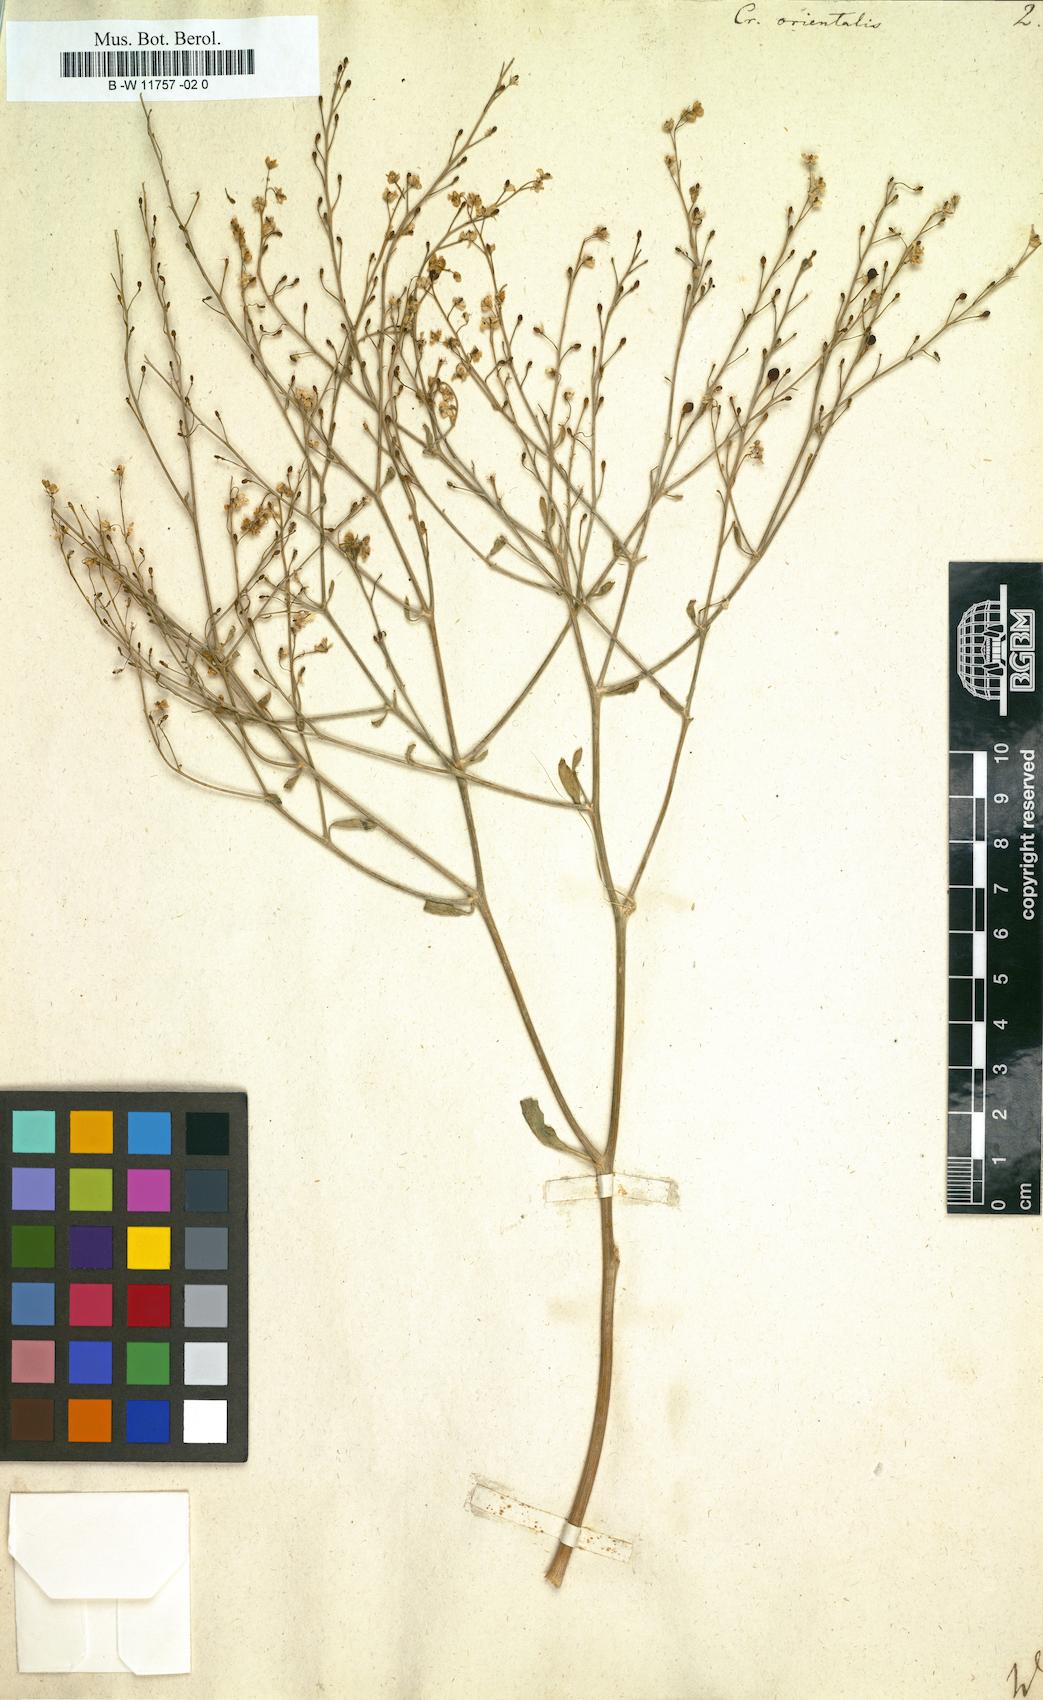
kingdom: Plantae
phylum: Tracheophyta
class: Magnoliopsida
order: Brassicales
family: Brassicaceae
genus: Crambe
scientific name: Crambe orientalis
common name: Oriental sea-kale
